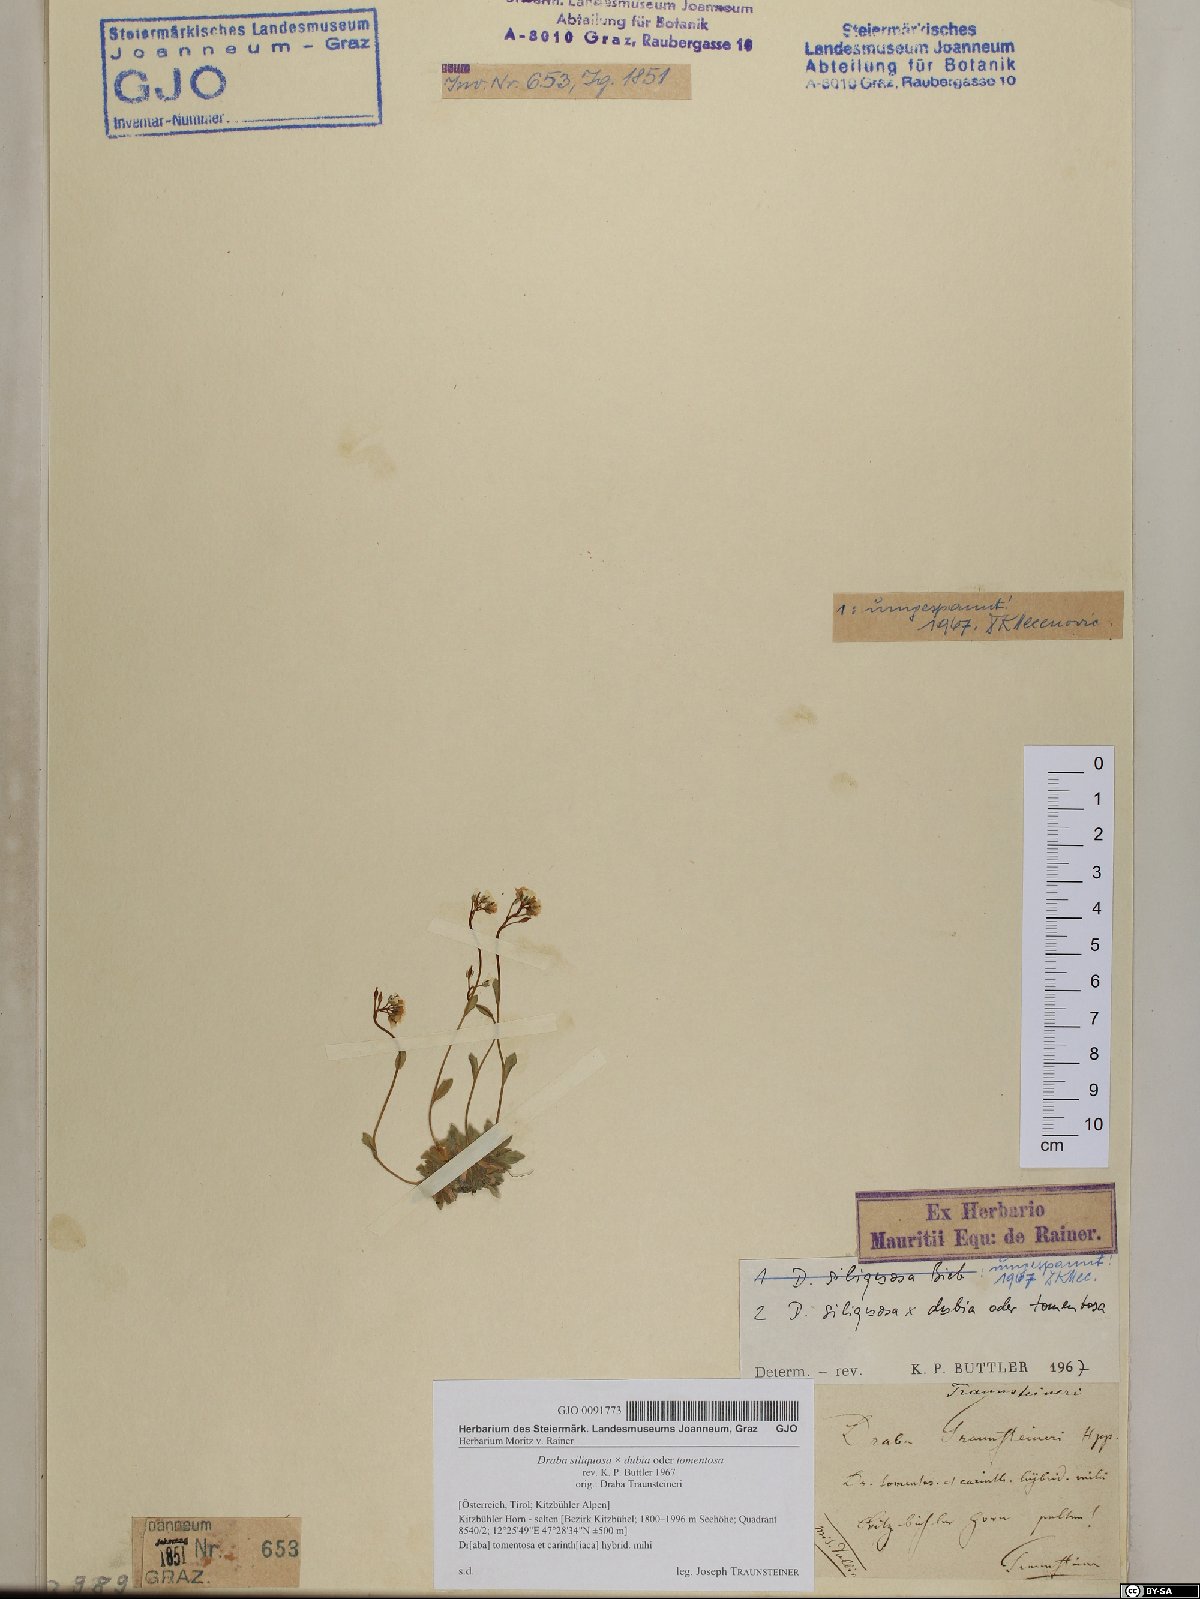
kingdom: Plantae
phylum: Tracheophyta
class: Magnoliopsida
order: Brassicales
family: Brassicaceae
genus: Draba
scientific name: Draba siliquosa
